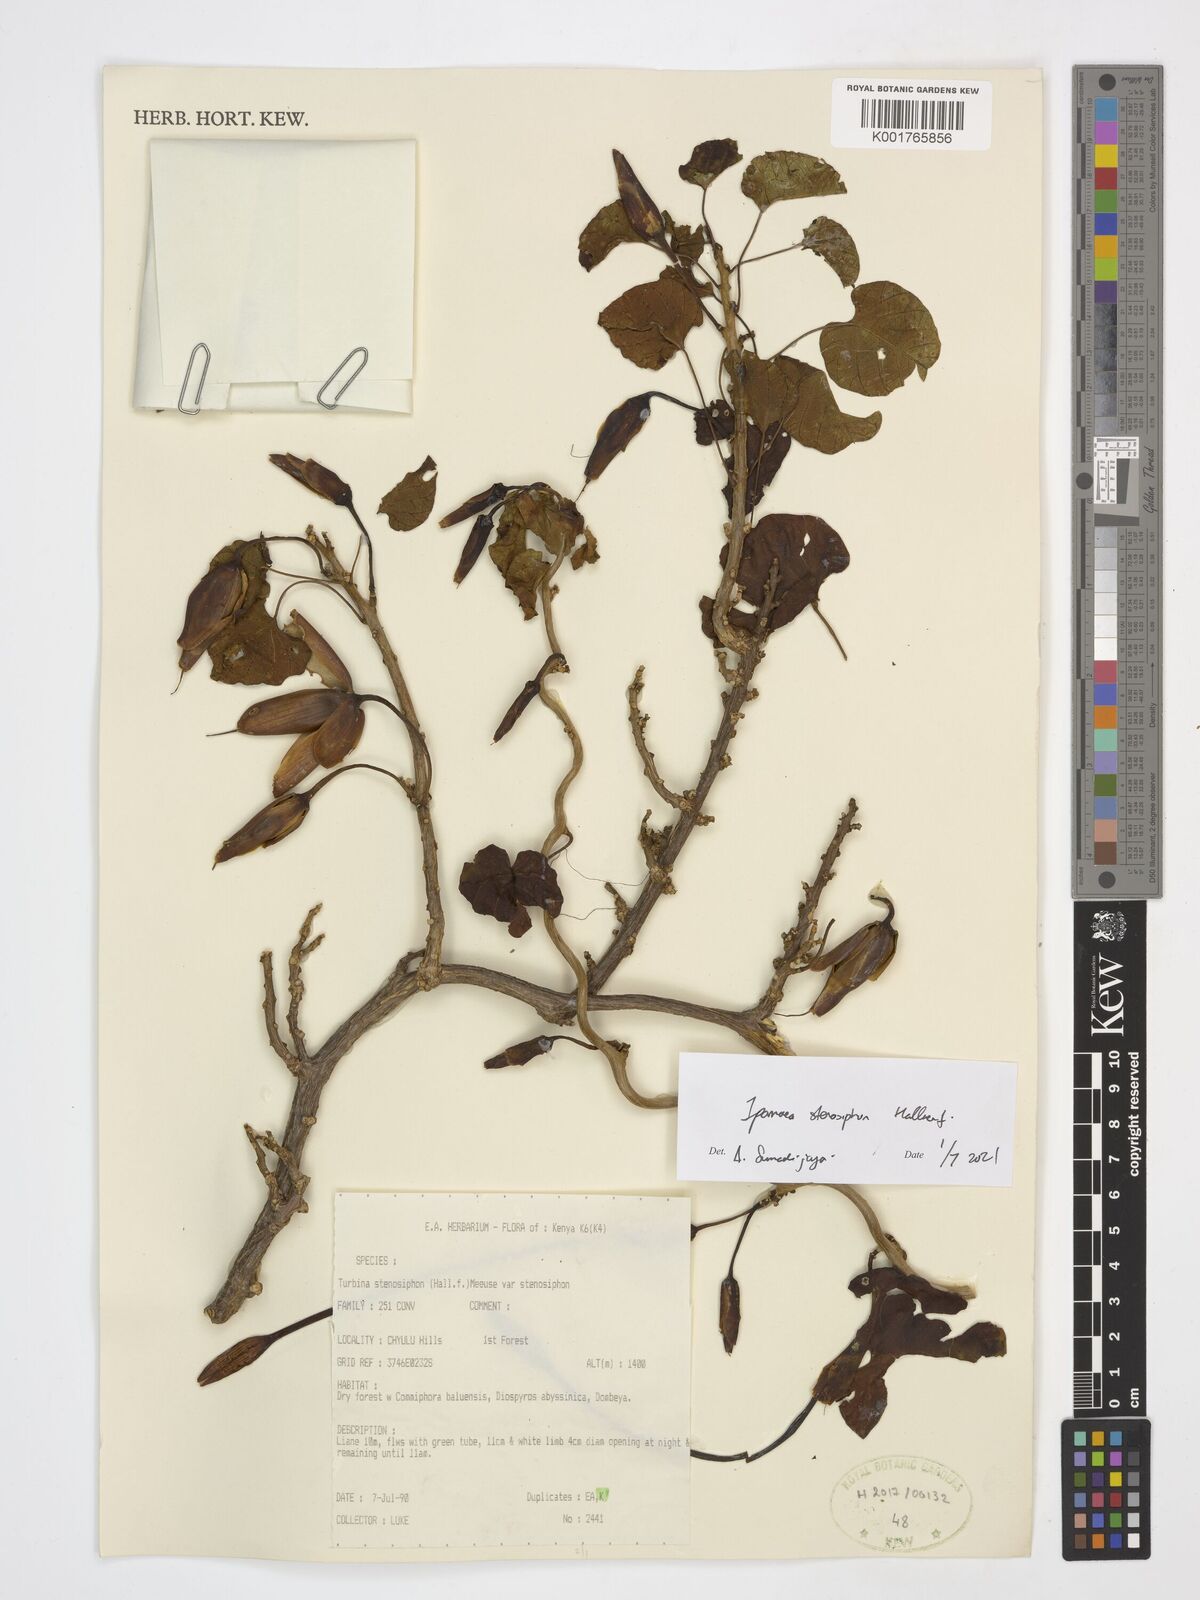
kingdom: Plantae
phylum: Tracheophyta
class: Magnoliopsida
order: Solanales
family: Convolvulaceae
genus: Ipomoea
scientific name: Ipomoea stenosiphon
